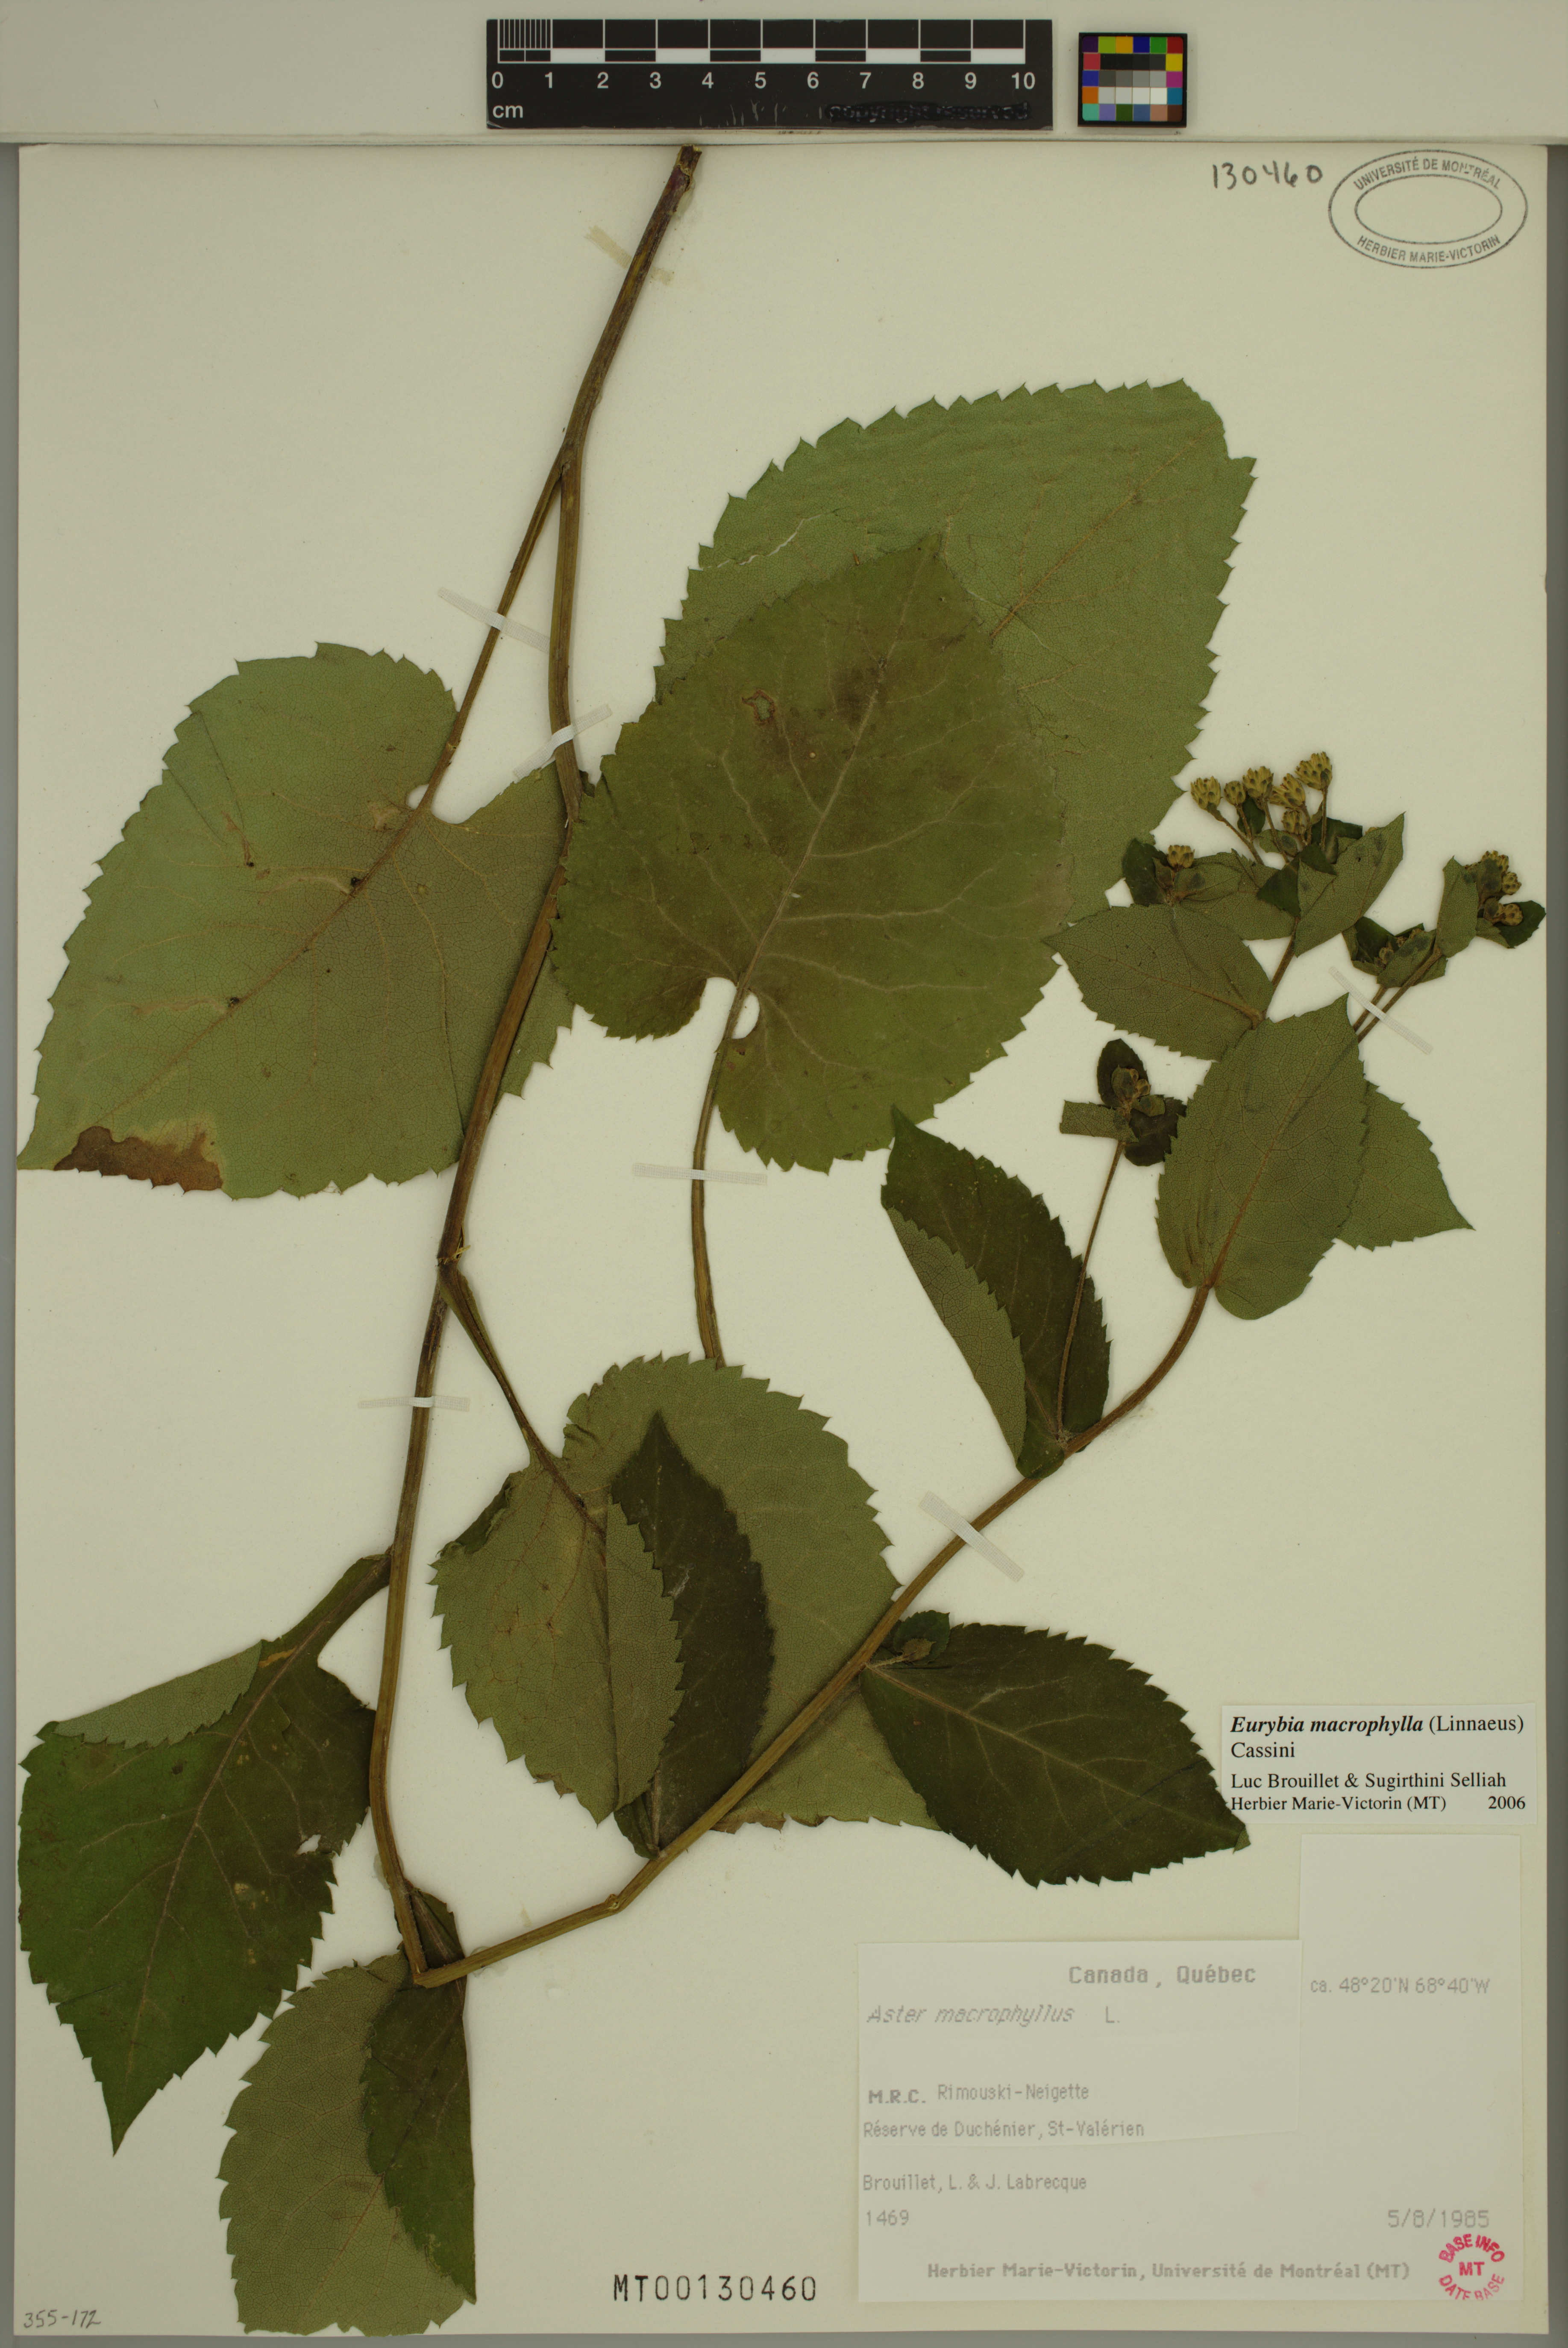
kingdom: Plantae
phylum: Tracheophyta
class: Magnoliopsida
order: Asterales
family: Asteraceae
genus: Eurybia
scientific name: Eurybia macrophylla
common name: Big-leaved aster
